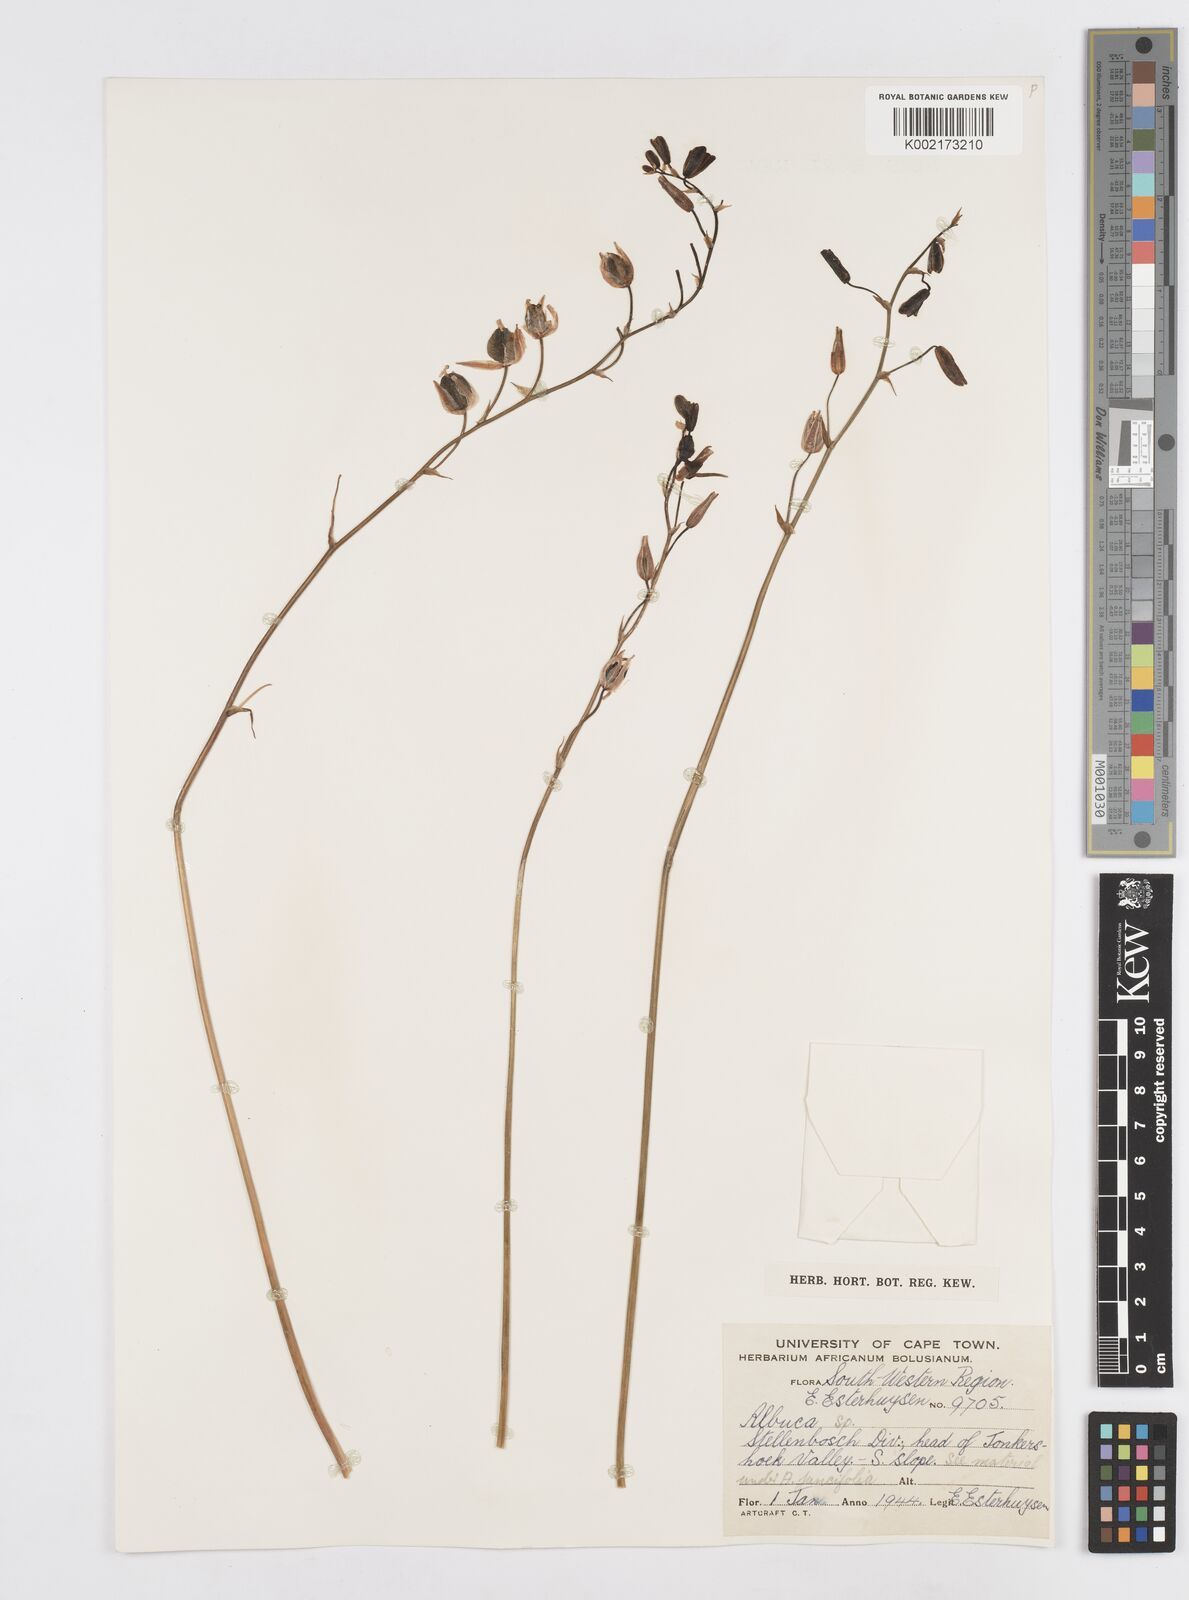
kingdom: Plantae
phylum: Tracheophyta
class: Liliopsida
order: Asparagales
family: Asparagaceae
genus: Albuca
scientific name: Albuca
